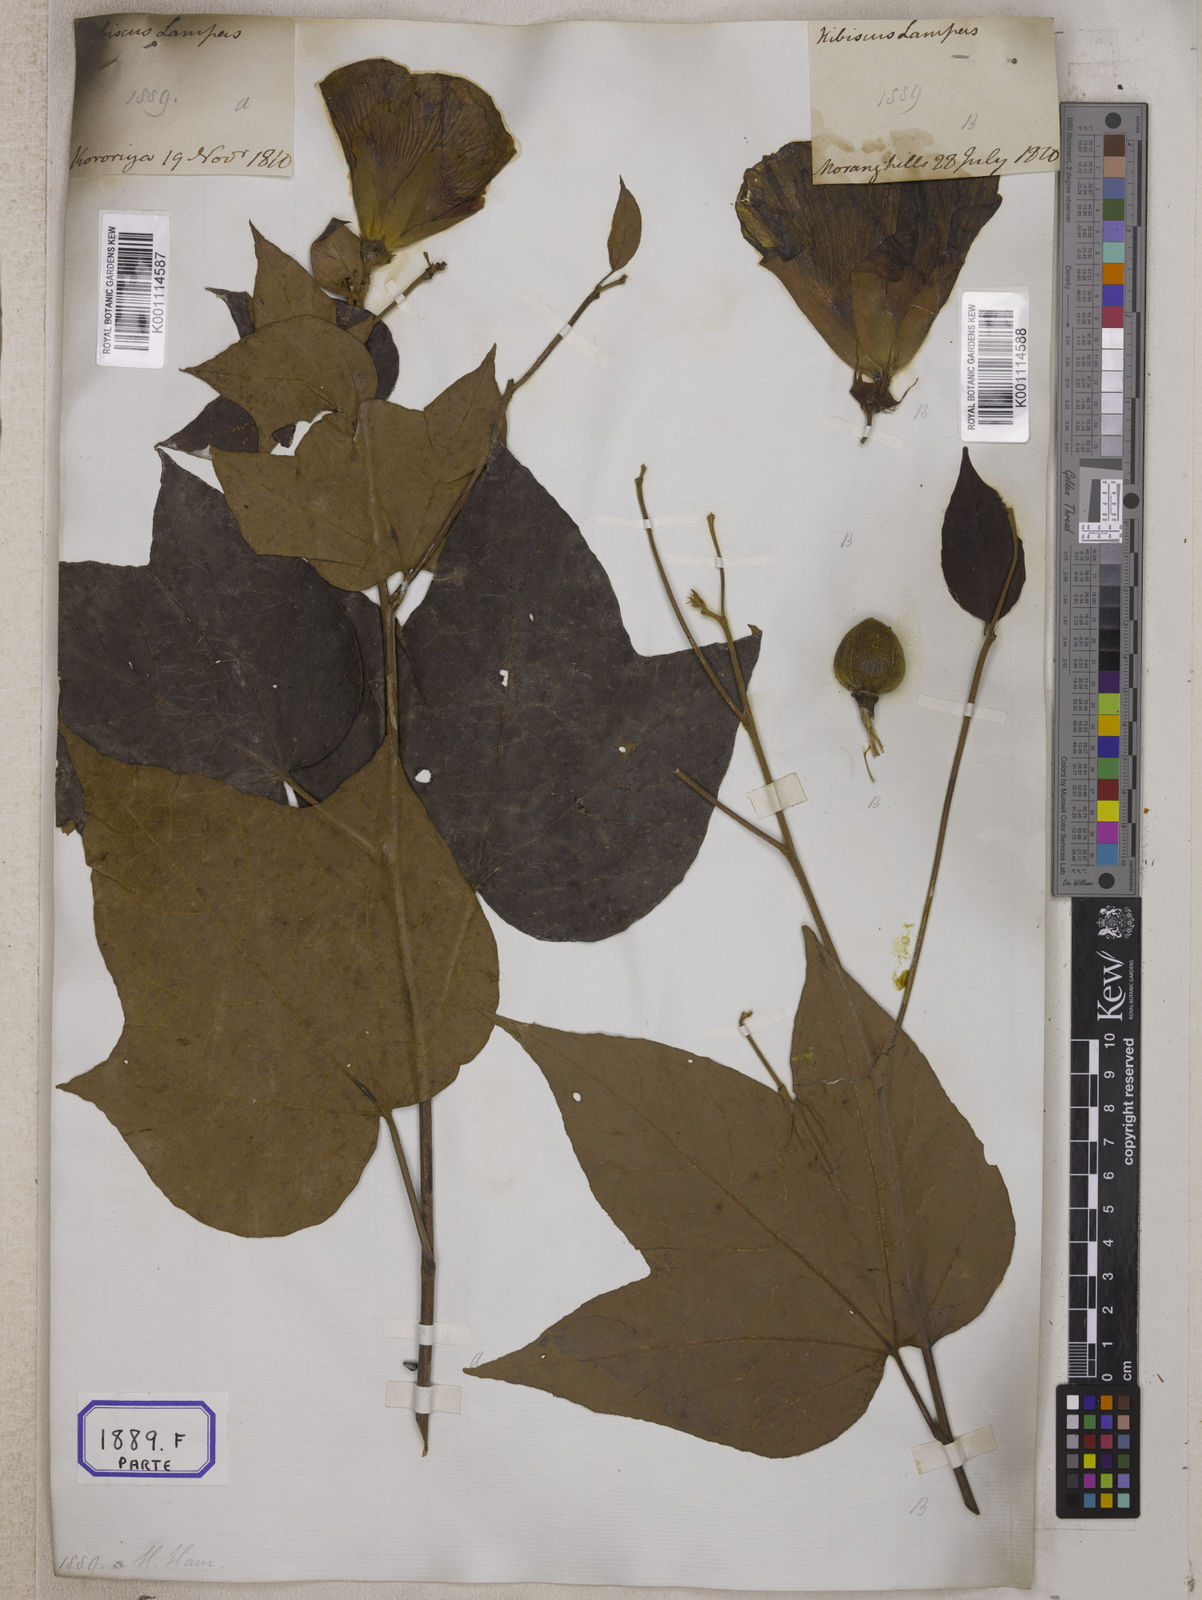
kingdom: Plantae
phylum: Tracheophyta
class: Magnoliopsida
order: Malvales
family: Malvaceae
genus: Thespesia
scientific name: Thespesia lampas
